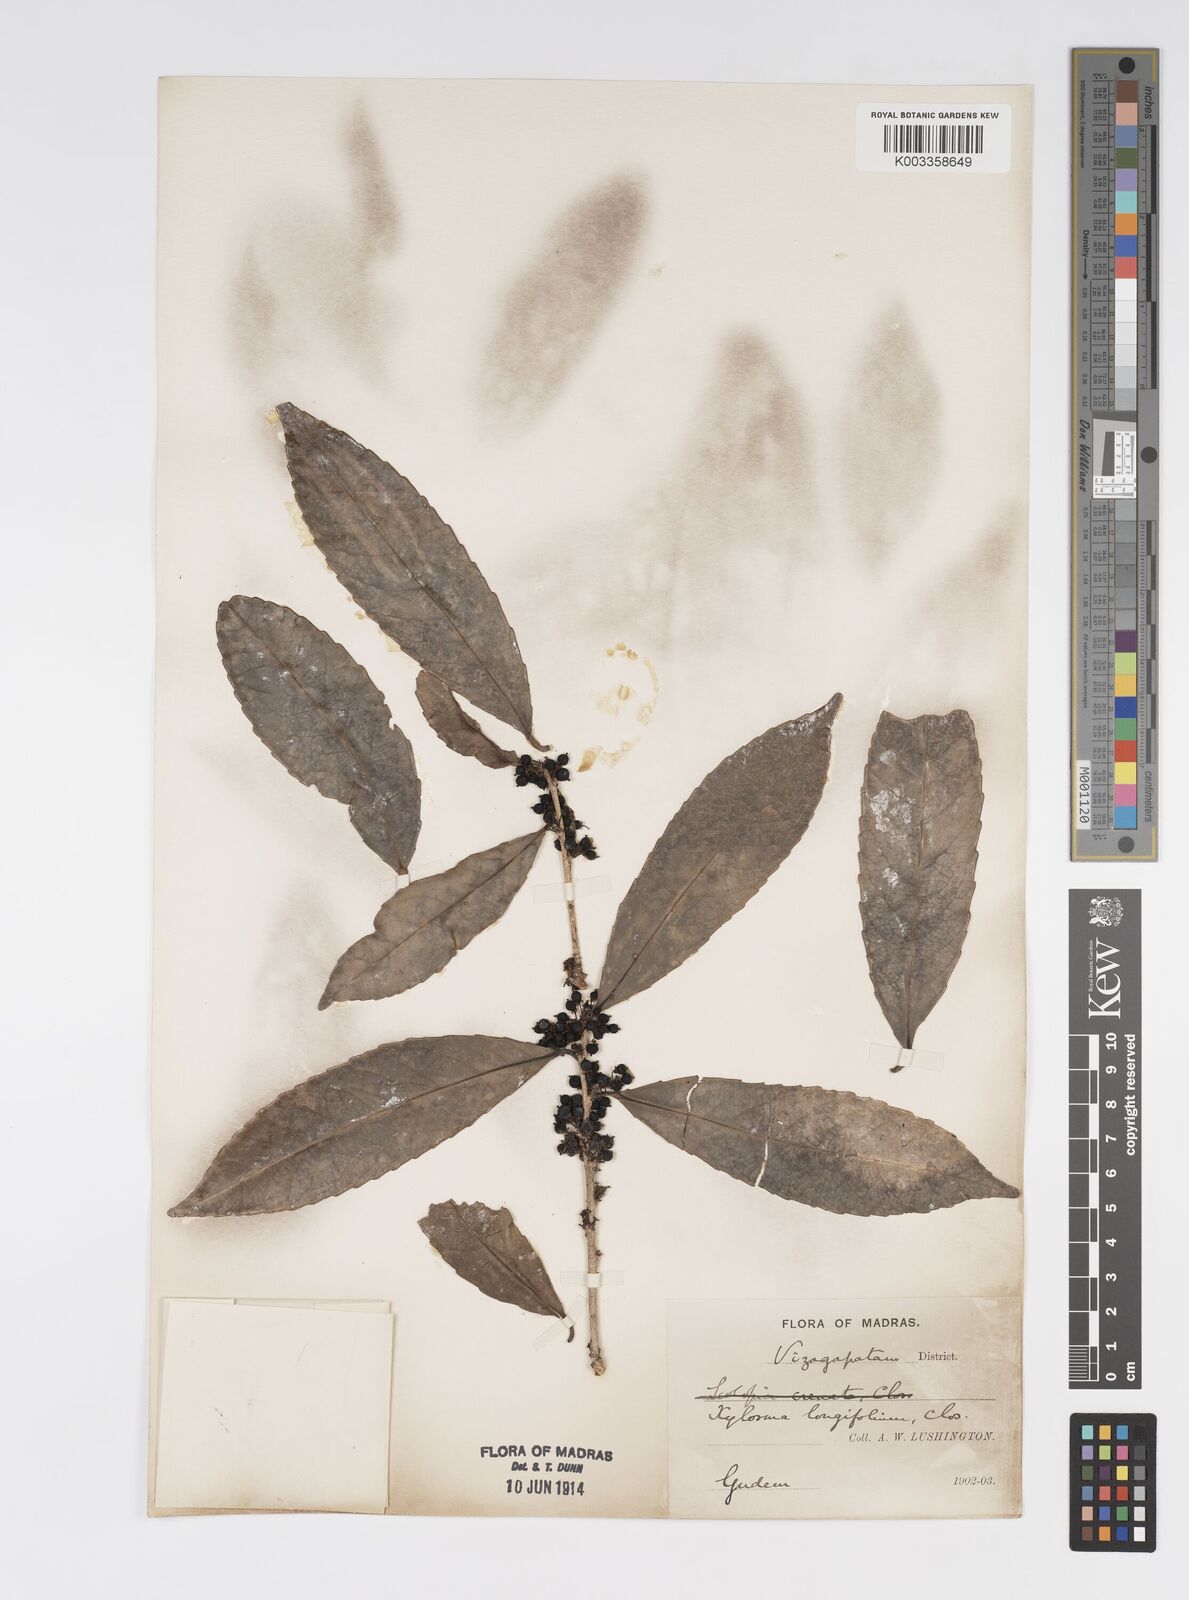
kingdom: Plantae
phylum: Tracheophyta
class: Magnoliopsida
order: Malpighiales
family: Salicaceae
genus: Xylosma
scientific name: Xylosma longifolia
